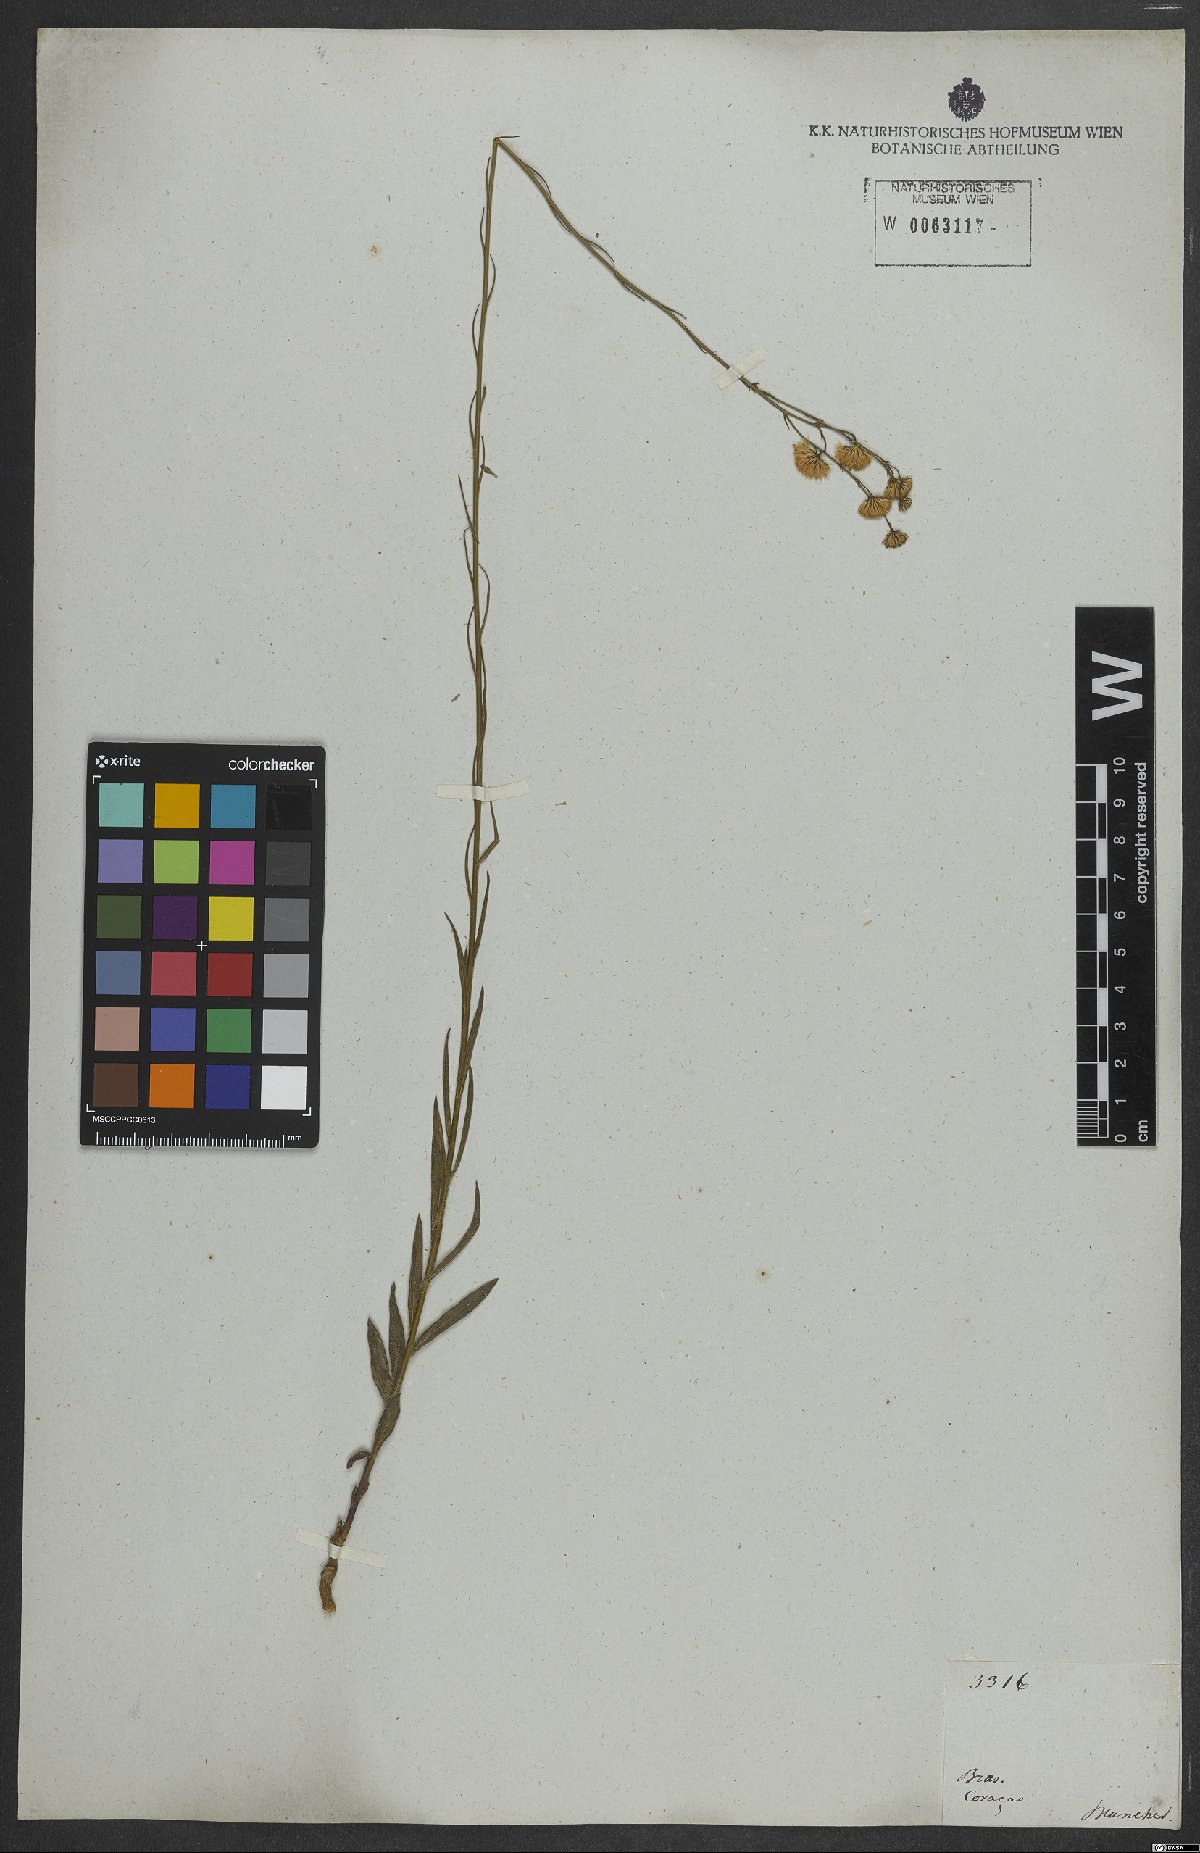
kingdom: Plantae
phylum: Tracheophyta
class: Magnoliopsida
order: Asterales
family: Asteraceae
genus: Erigeron
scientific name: Erigeron
